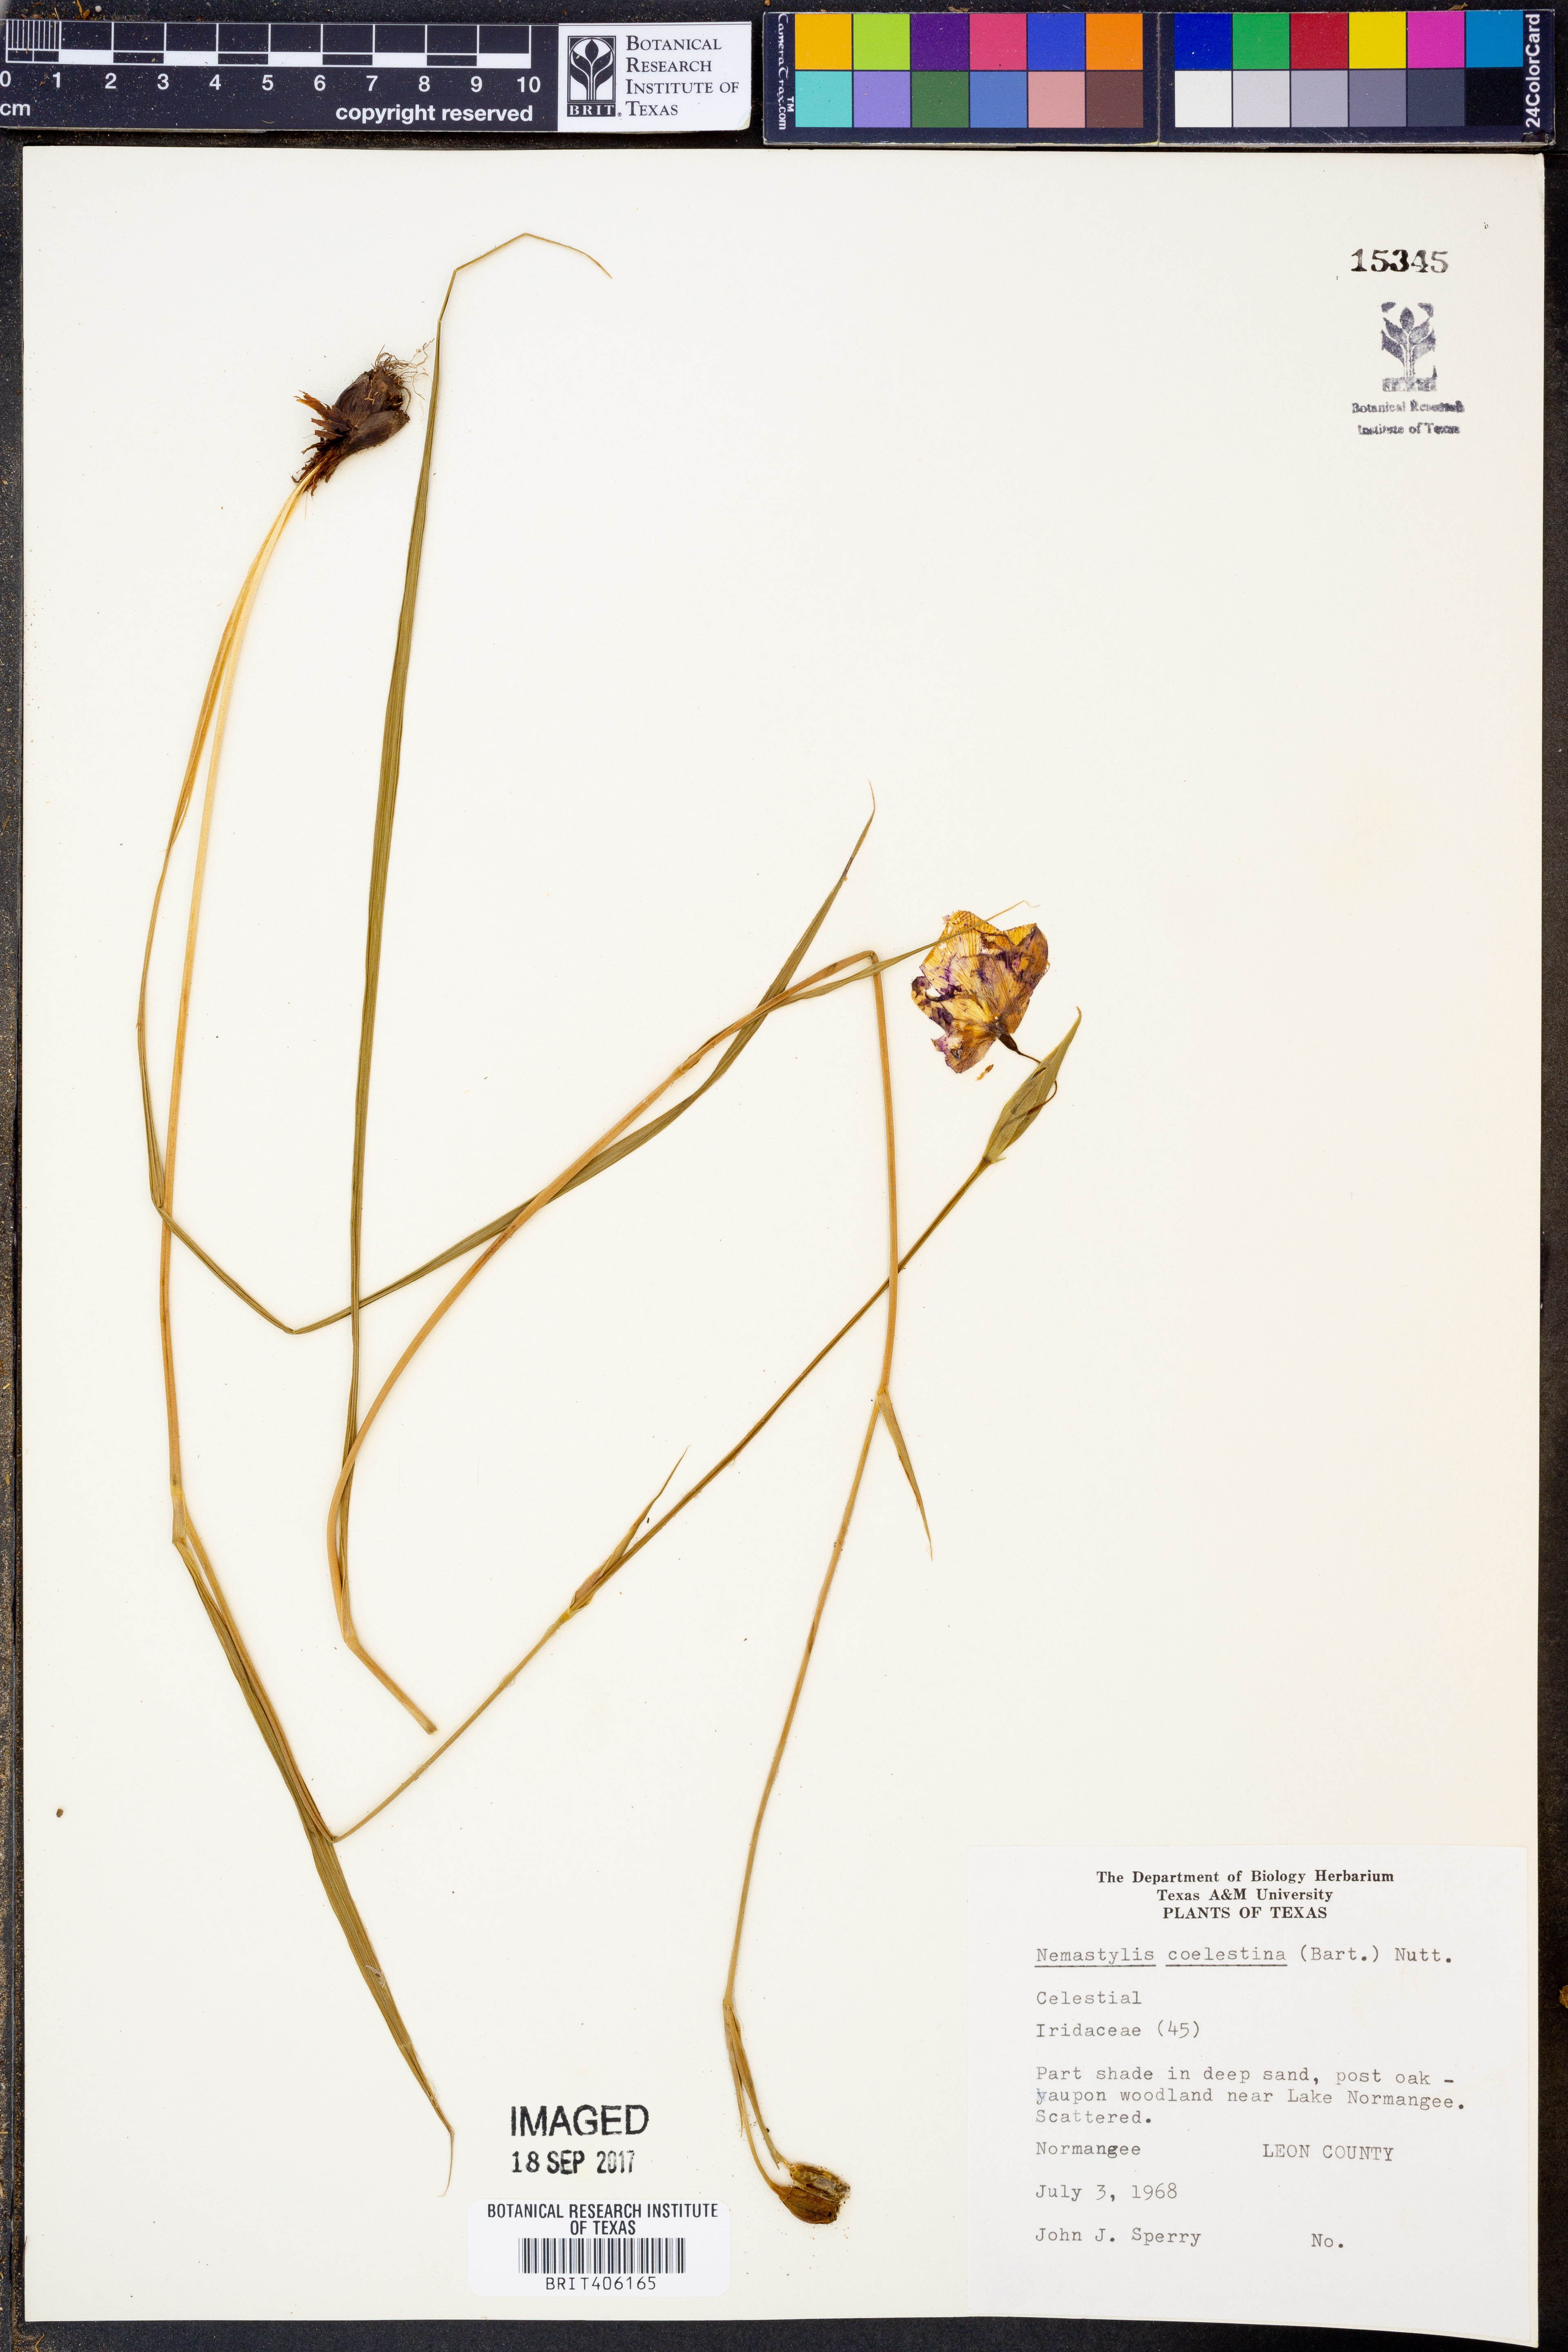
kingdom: Plantae
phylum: Tracheophyta
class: Liliopsida
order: Asparagales
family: Iridaceae
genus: Salpingostylis
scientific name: Salpingostylis coelestina
